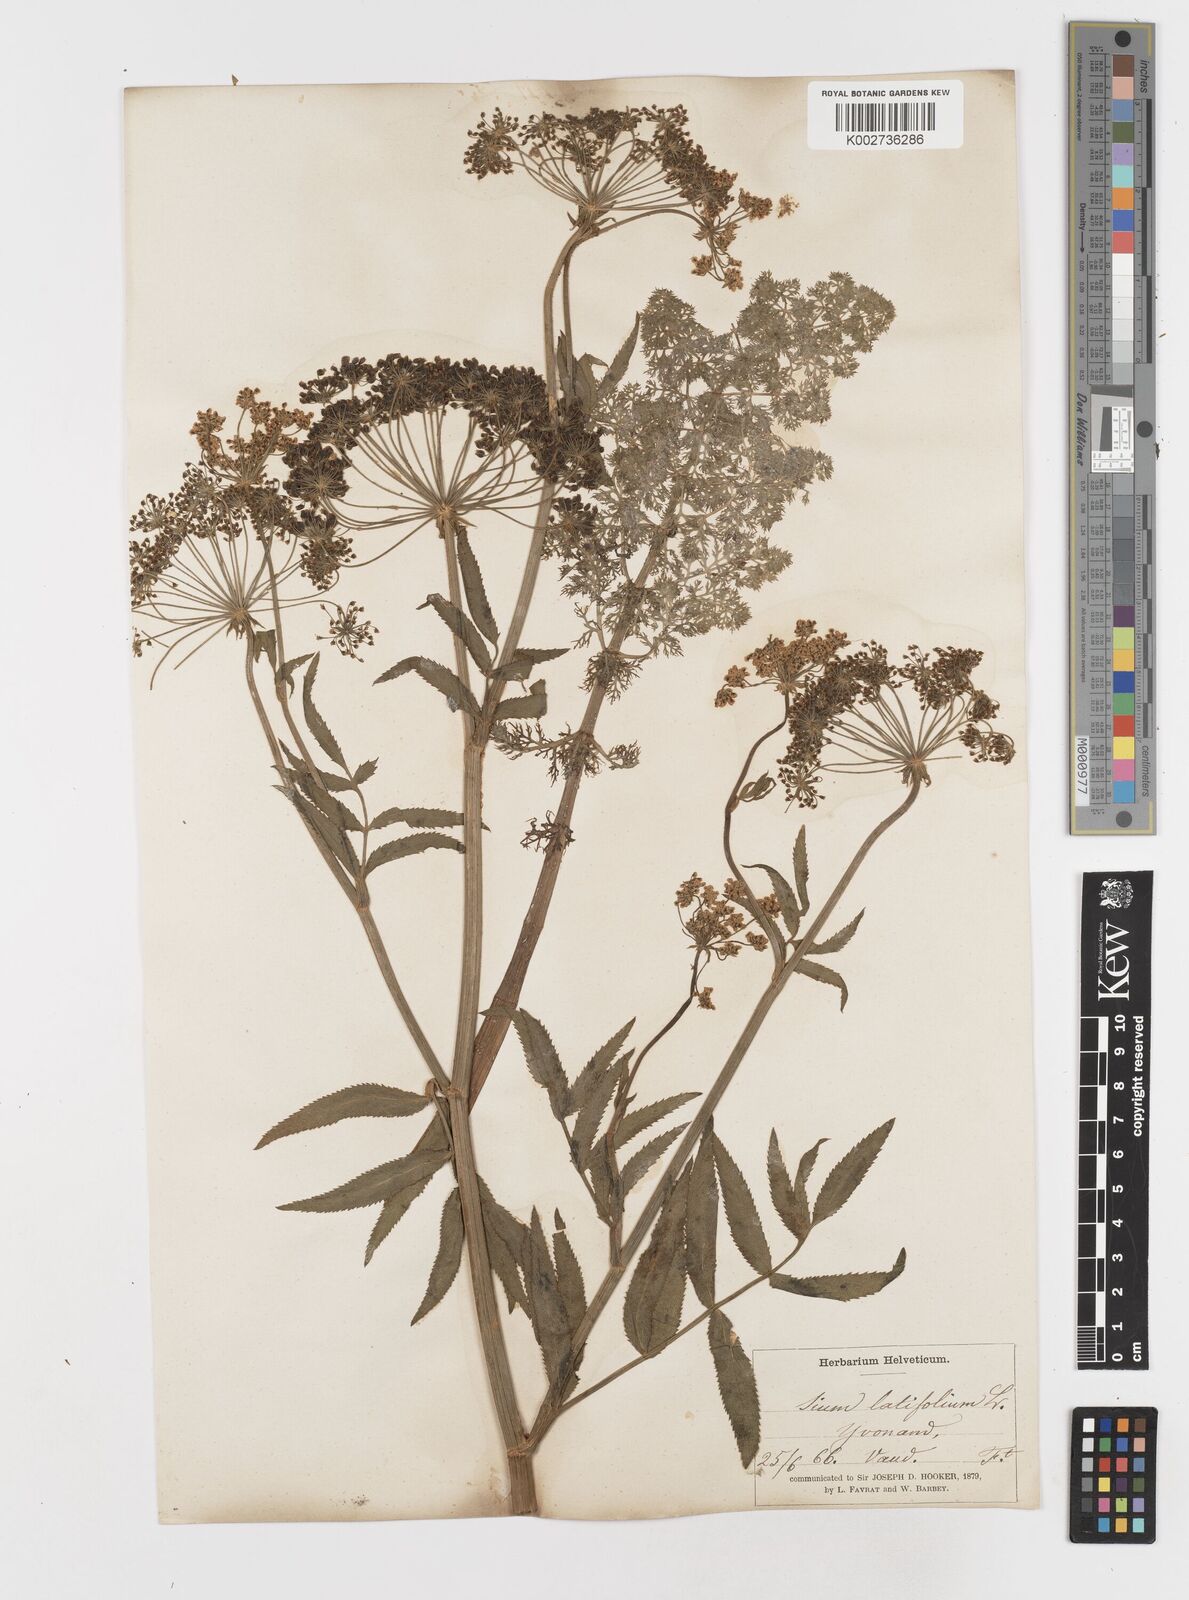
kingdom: Plantae
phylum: Tracheophyta
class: Magnoliopsida
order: Apiales
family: Apiaceae
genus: Sium
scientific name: Sium latifolium
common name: Greater water-parsnip
